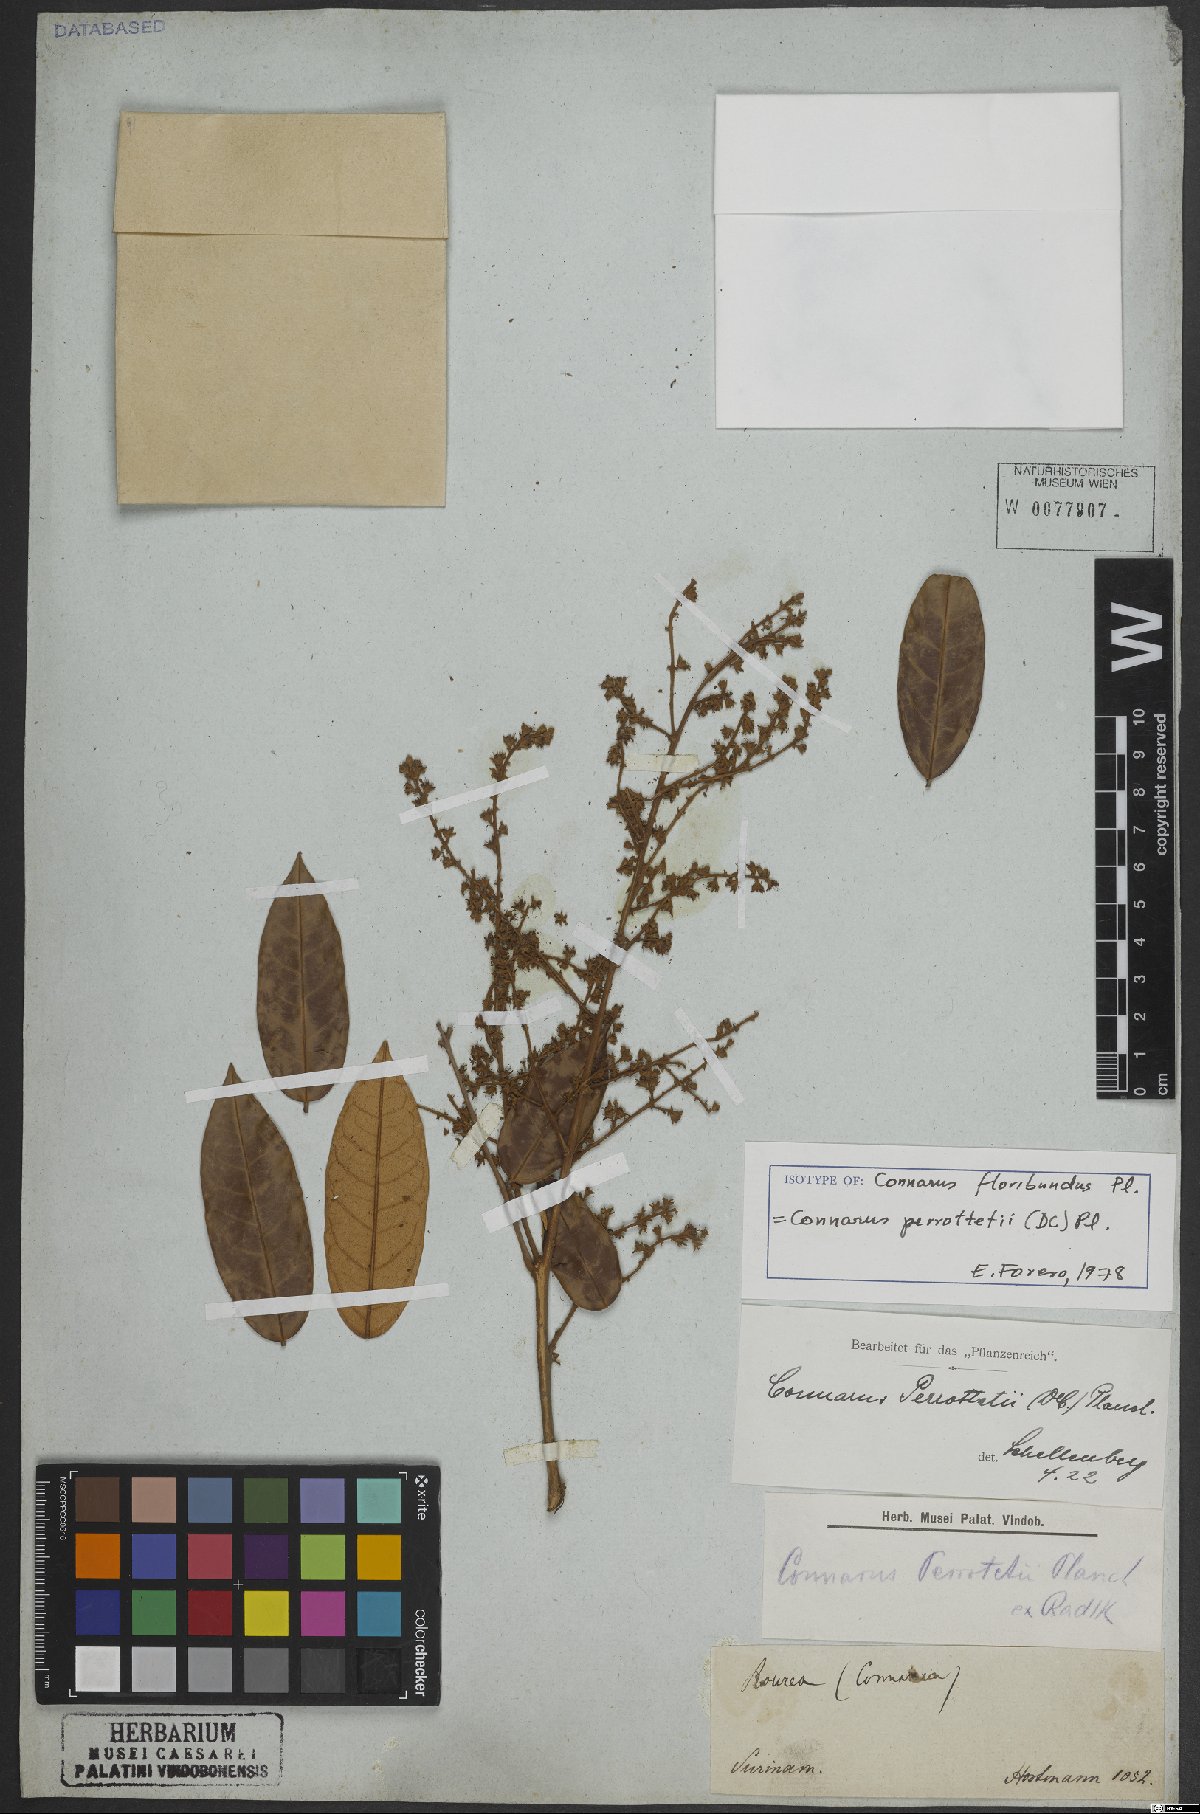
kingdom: Plantae
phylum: Tracheophyta
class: Magnoliopsida
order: Oxalidales
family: Connaraceae
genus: Connarus
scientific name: Connarus perrottetii
